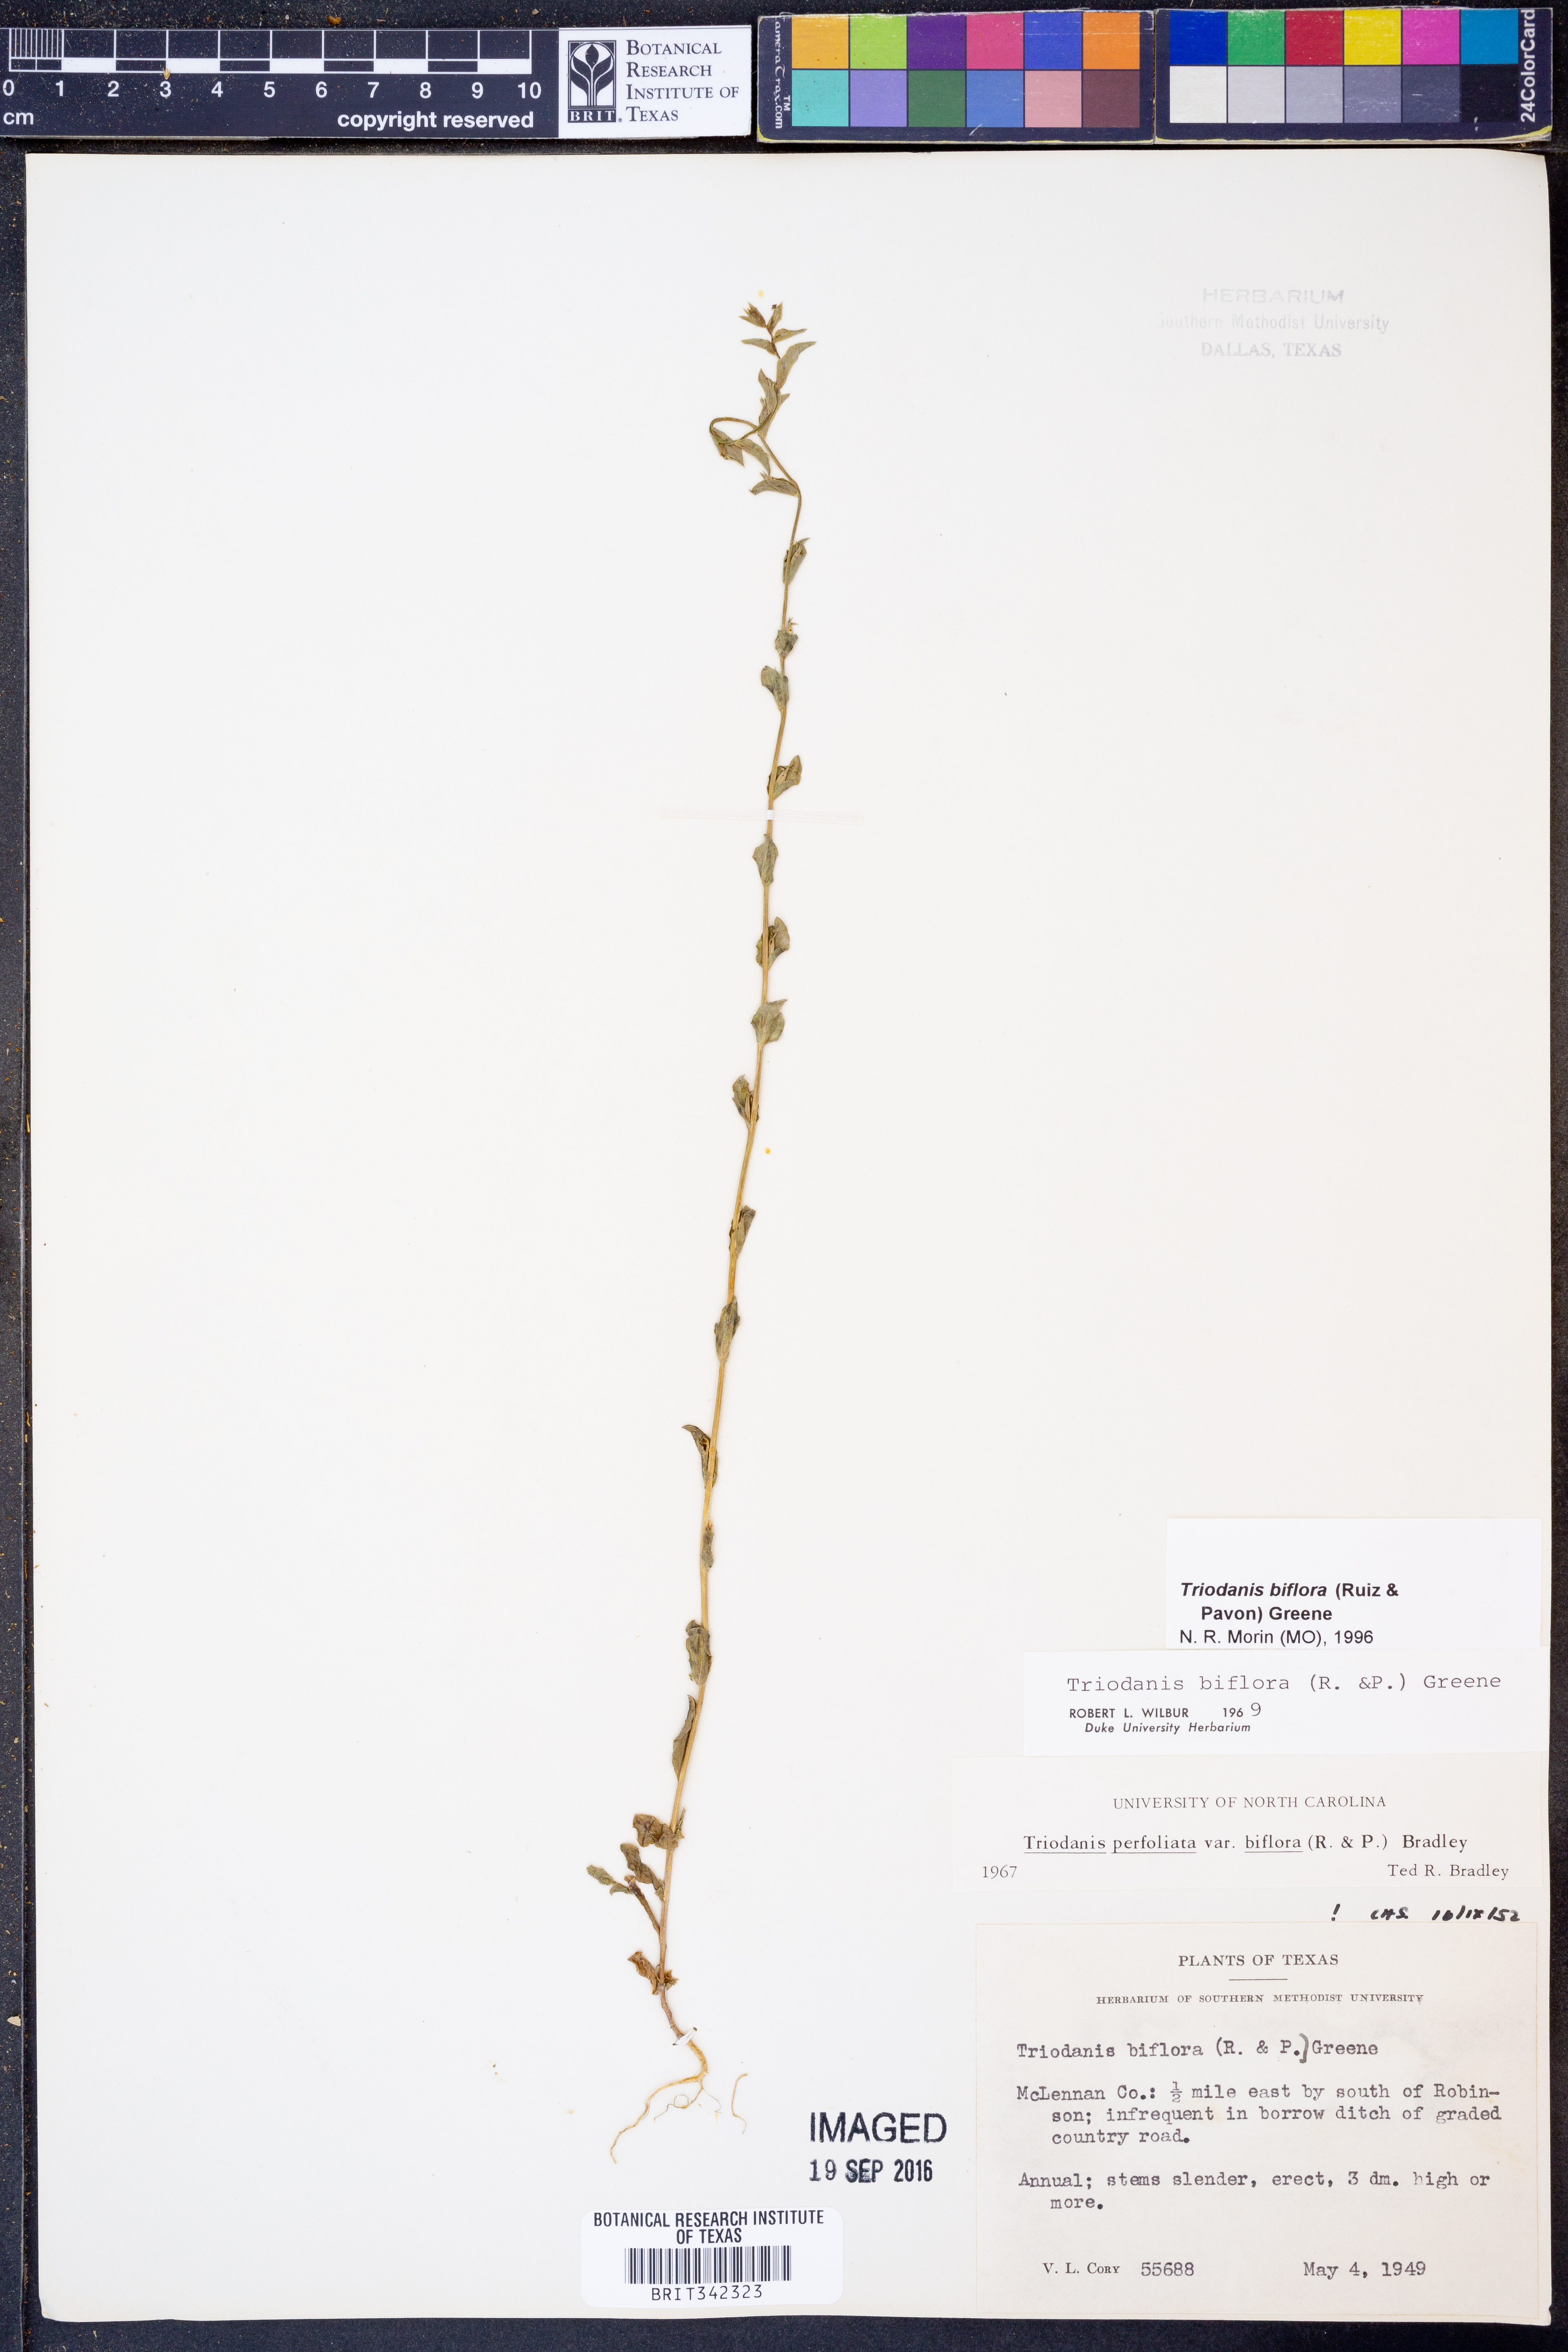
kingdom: Plantae
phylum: Tracheophyta
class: Magnoliopsida
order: Asterales
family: Campanulaceae
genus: Triodanis
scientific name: Triodanis perfoliata
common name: Clasping venus' looking-glass
